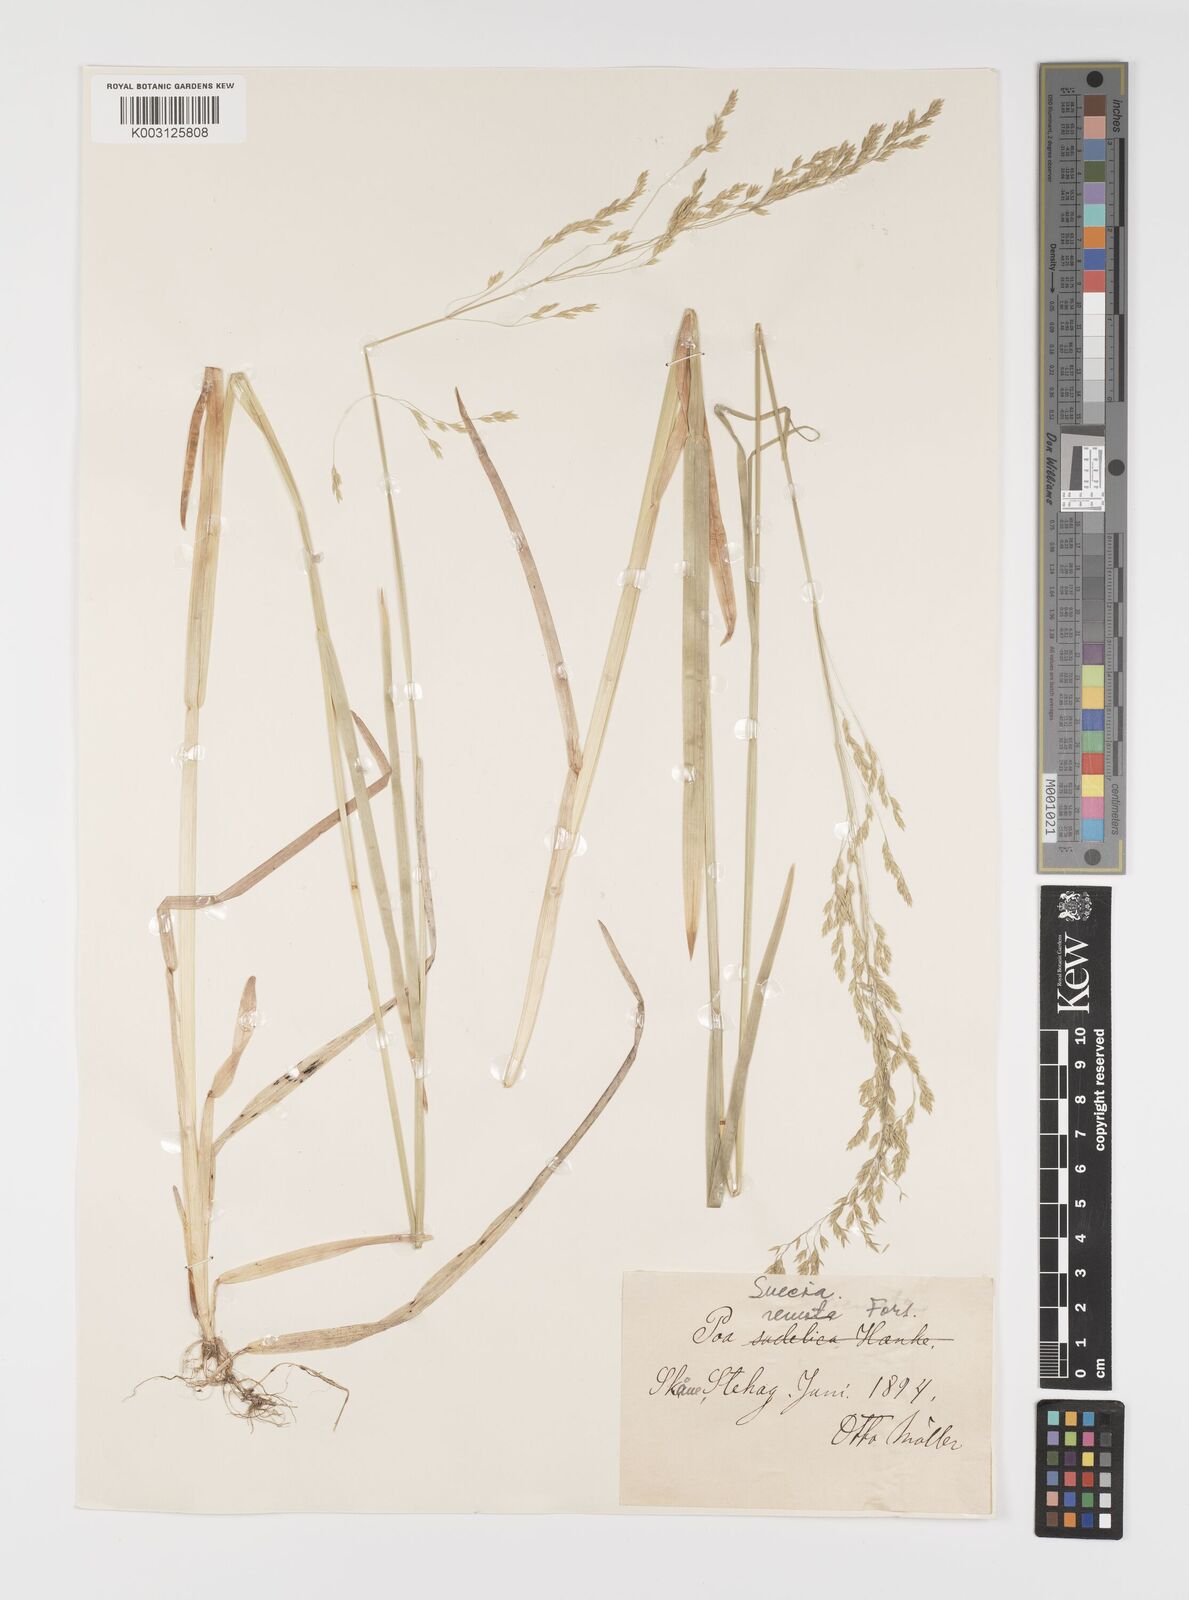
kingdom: Plantae
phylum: Tracheophyta
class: Liliopsida
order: Poales
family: Poaceae
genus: Poa
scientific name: Poa remota
